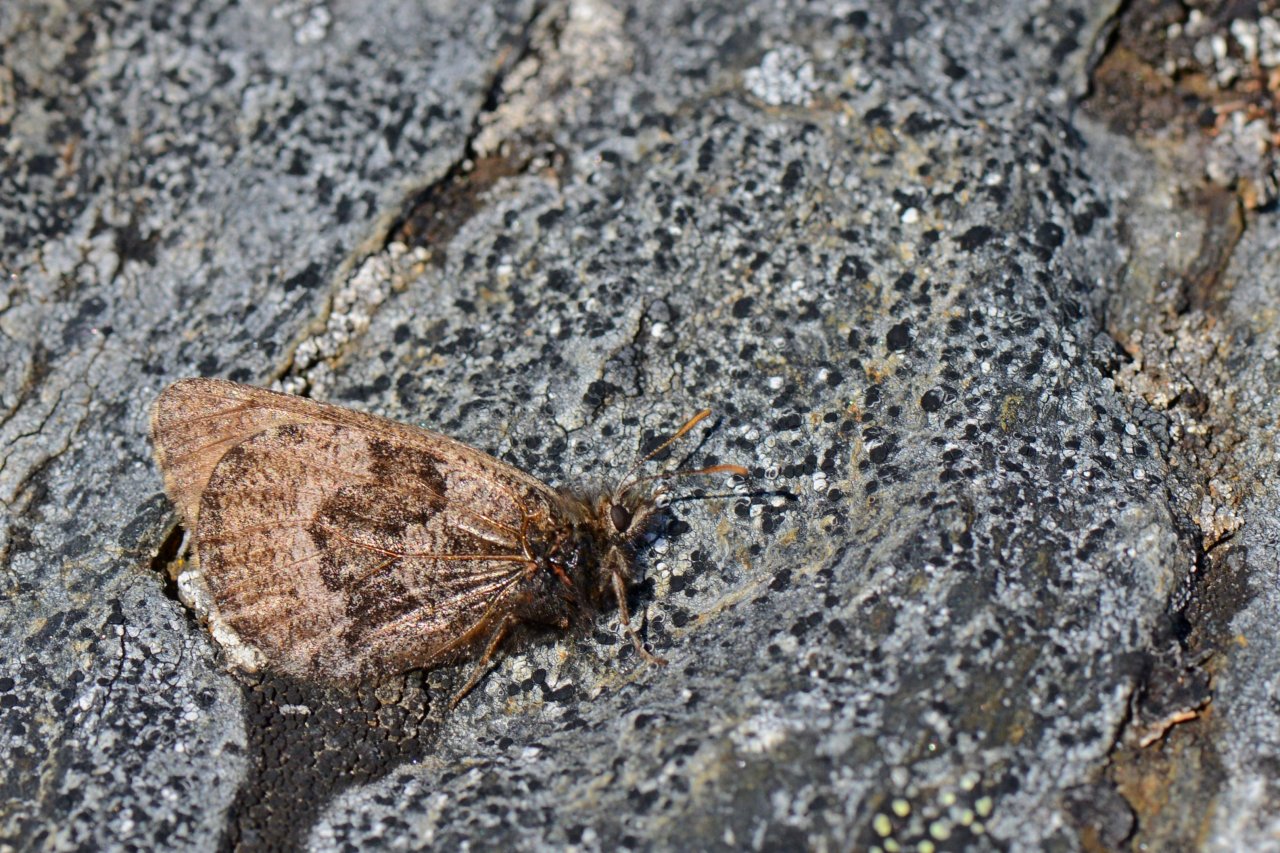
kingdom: Animalia
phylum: Arthropoda
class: Insecta
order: Lepidoptera
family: Nymphalidae
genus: Oeneis
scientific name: Oeneis bore
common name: Polixenes Arctic
